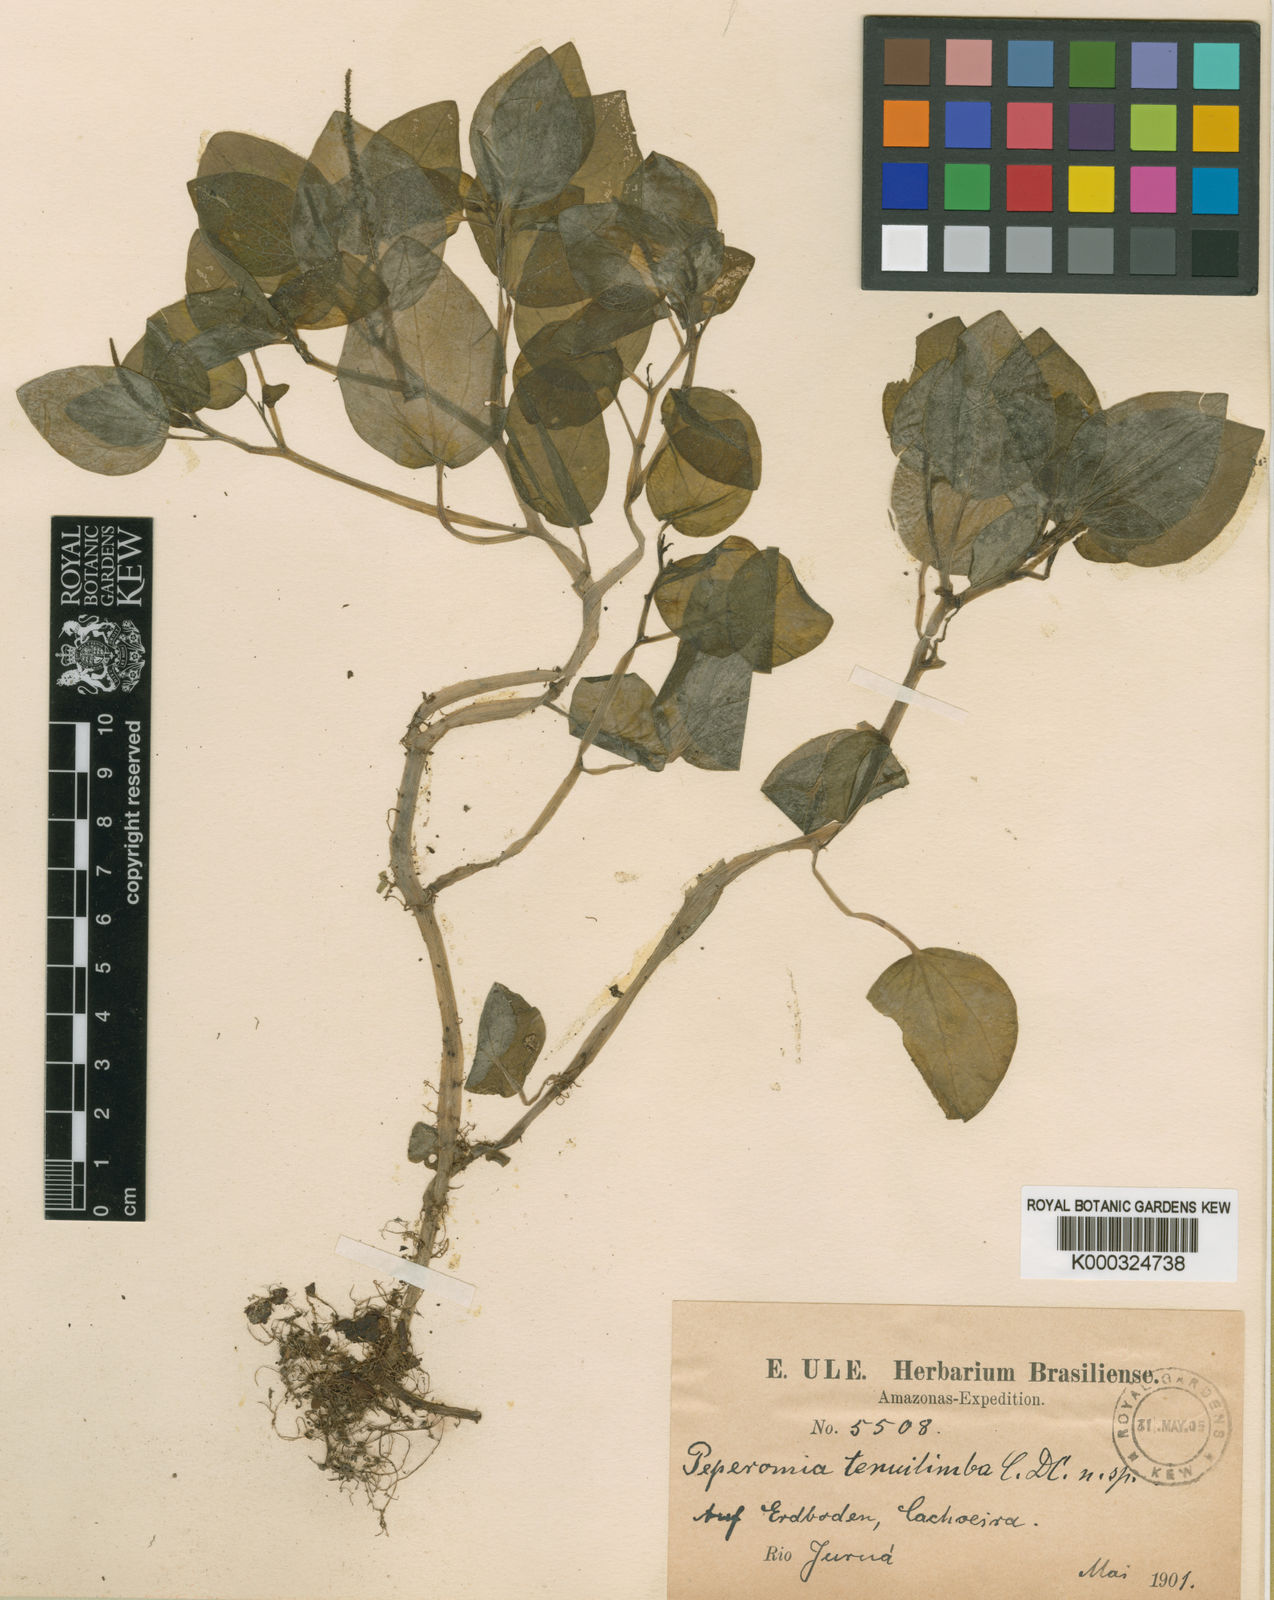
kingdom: Plantae
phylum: Tracheophyta
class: Magnoliopsida
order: Piperales
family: Piperaceae
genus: Peperomia
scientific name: Peperomia tenuilimba
